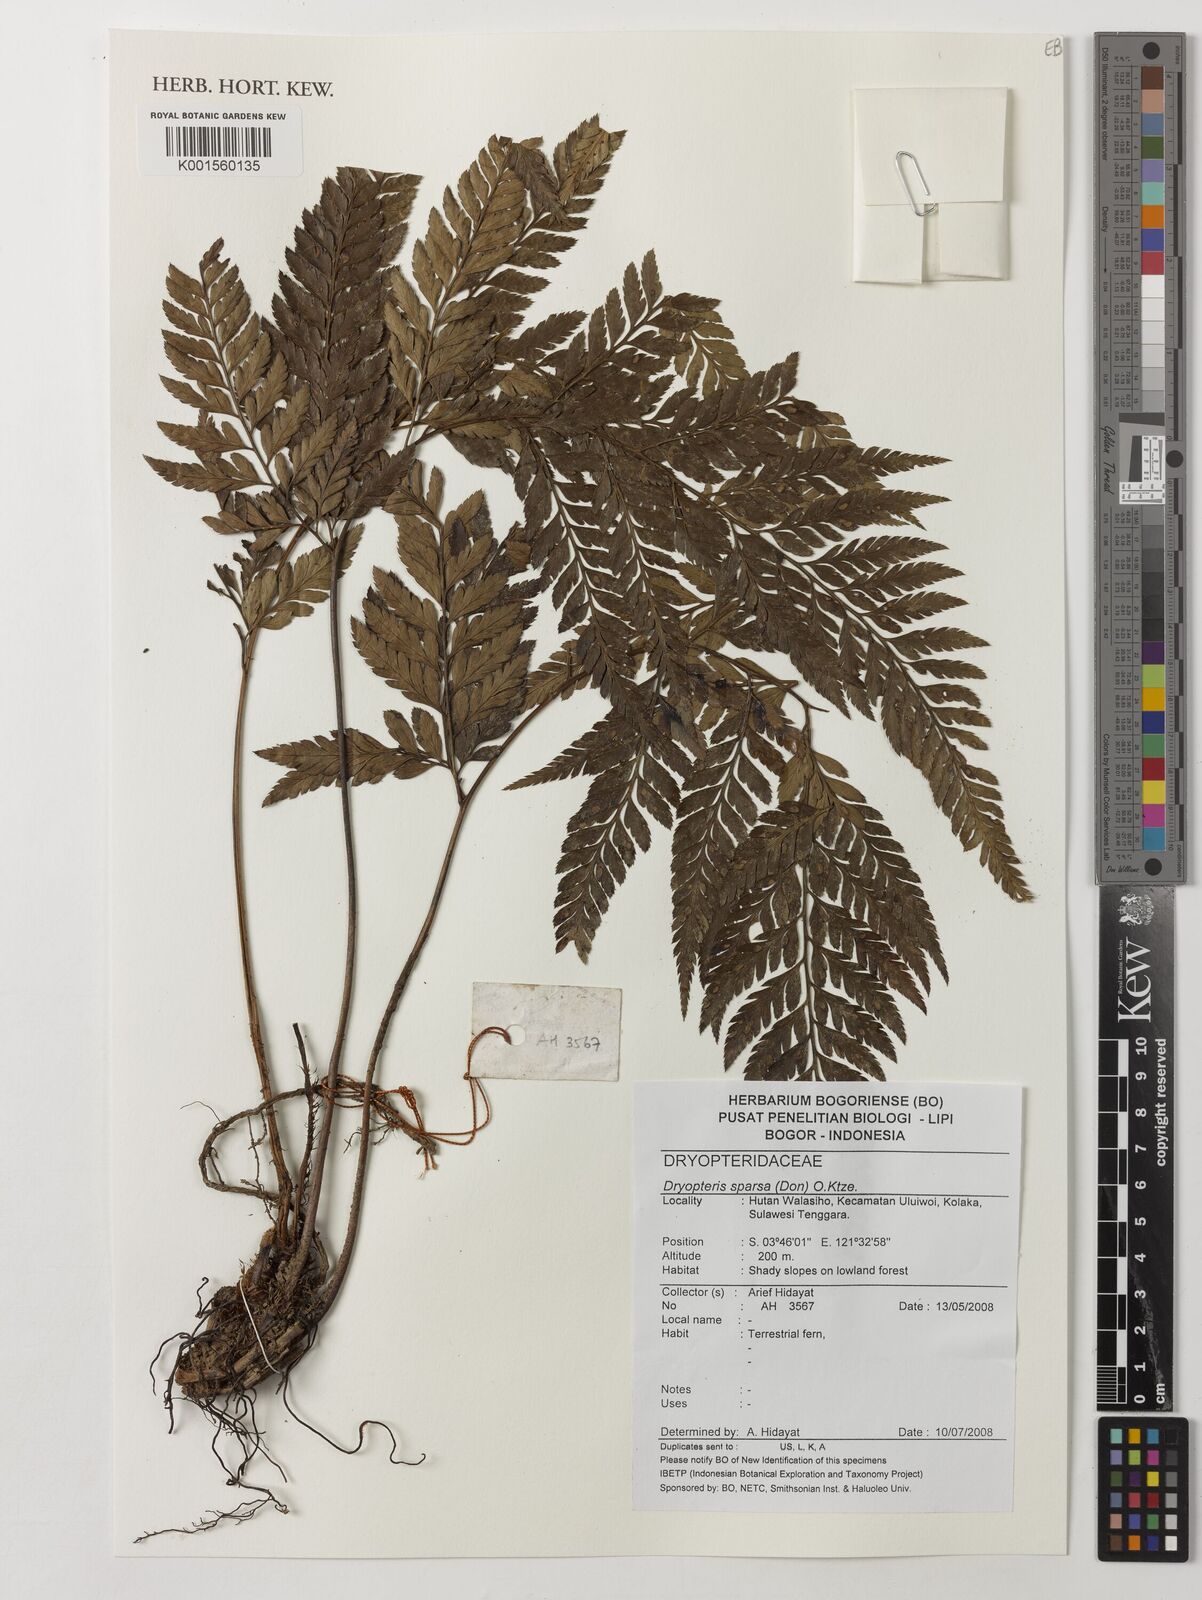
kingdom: Plantae
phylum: Tracheophyta
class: Polypodiopsida
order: Polypodiales
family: Dryopteridaceae
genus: Dryopteris
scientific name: Dryopteris sparsa
